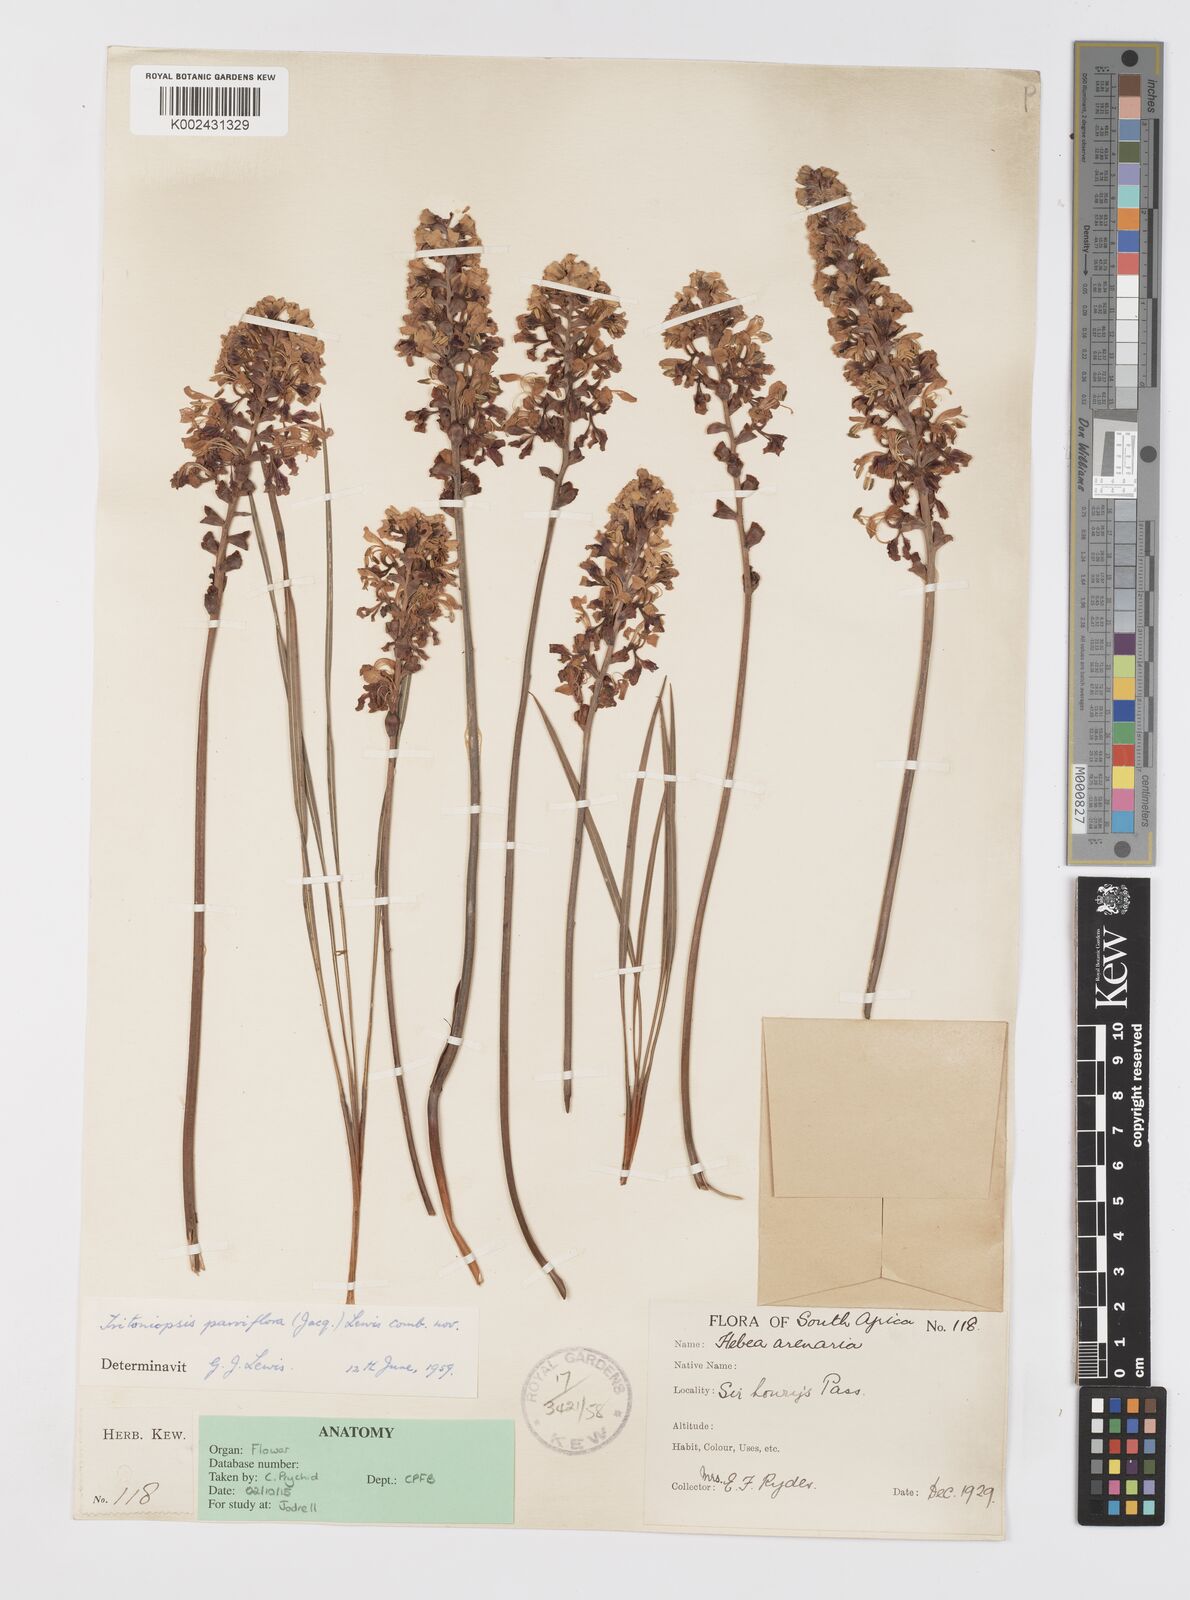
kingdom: Plantae
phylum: Tracheophyta
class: Liliopsida
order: Asparagales
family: Iridaceae
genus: Tritoniopsis
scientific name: Tritoniopsis parviflora
